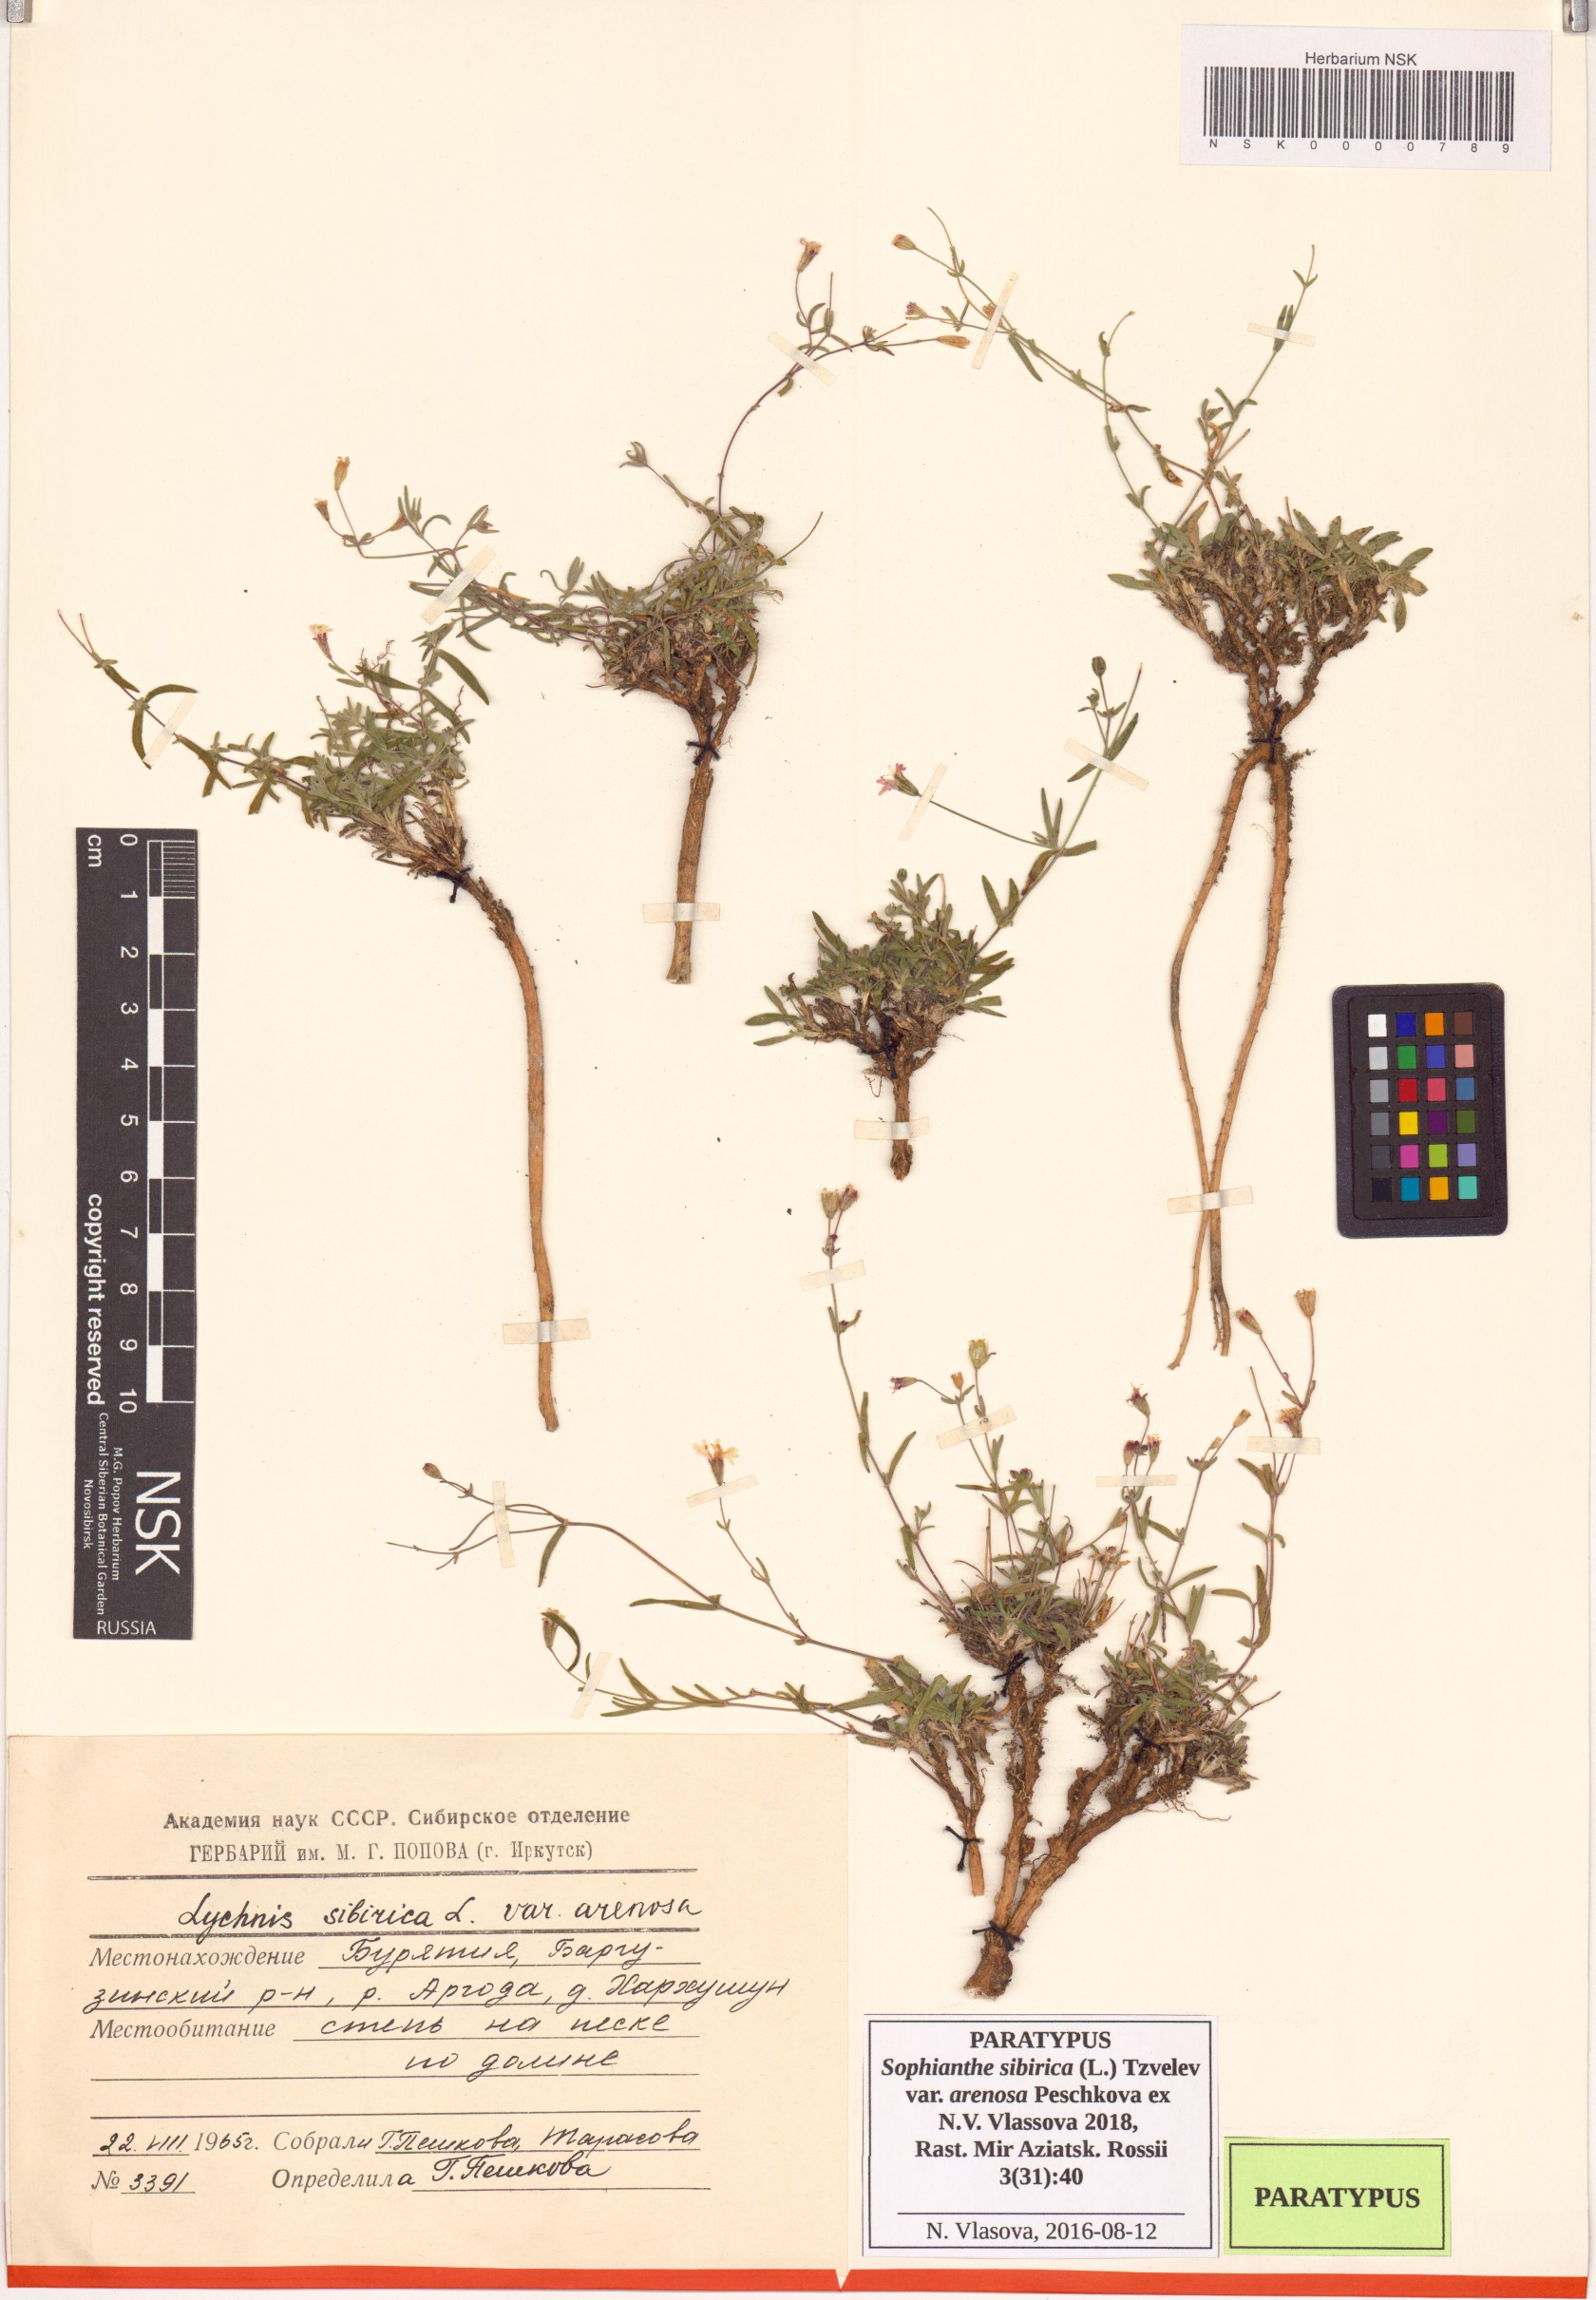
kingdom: Plantae
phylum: Tracheophyta
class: Magnoliopsida
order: Caryophyllales
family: Caryophyllaceae
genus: Silene
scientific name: Silene orientalimongolica
